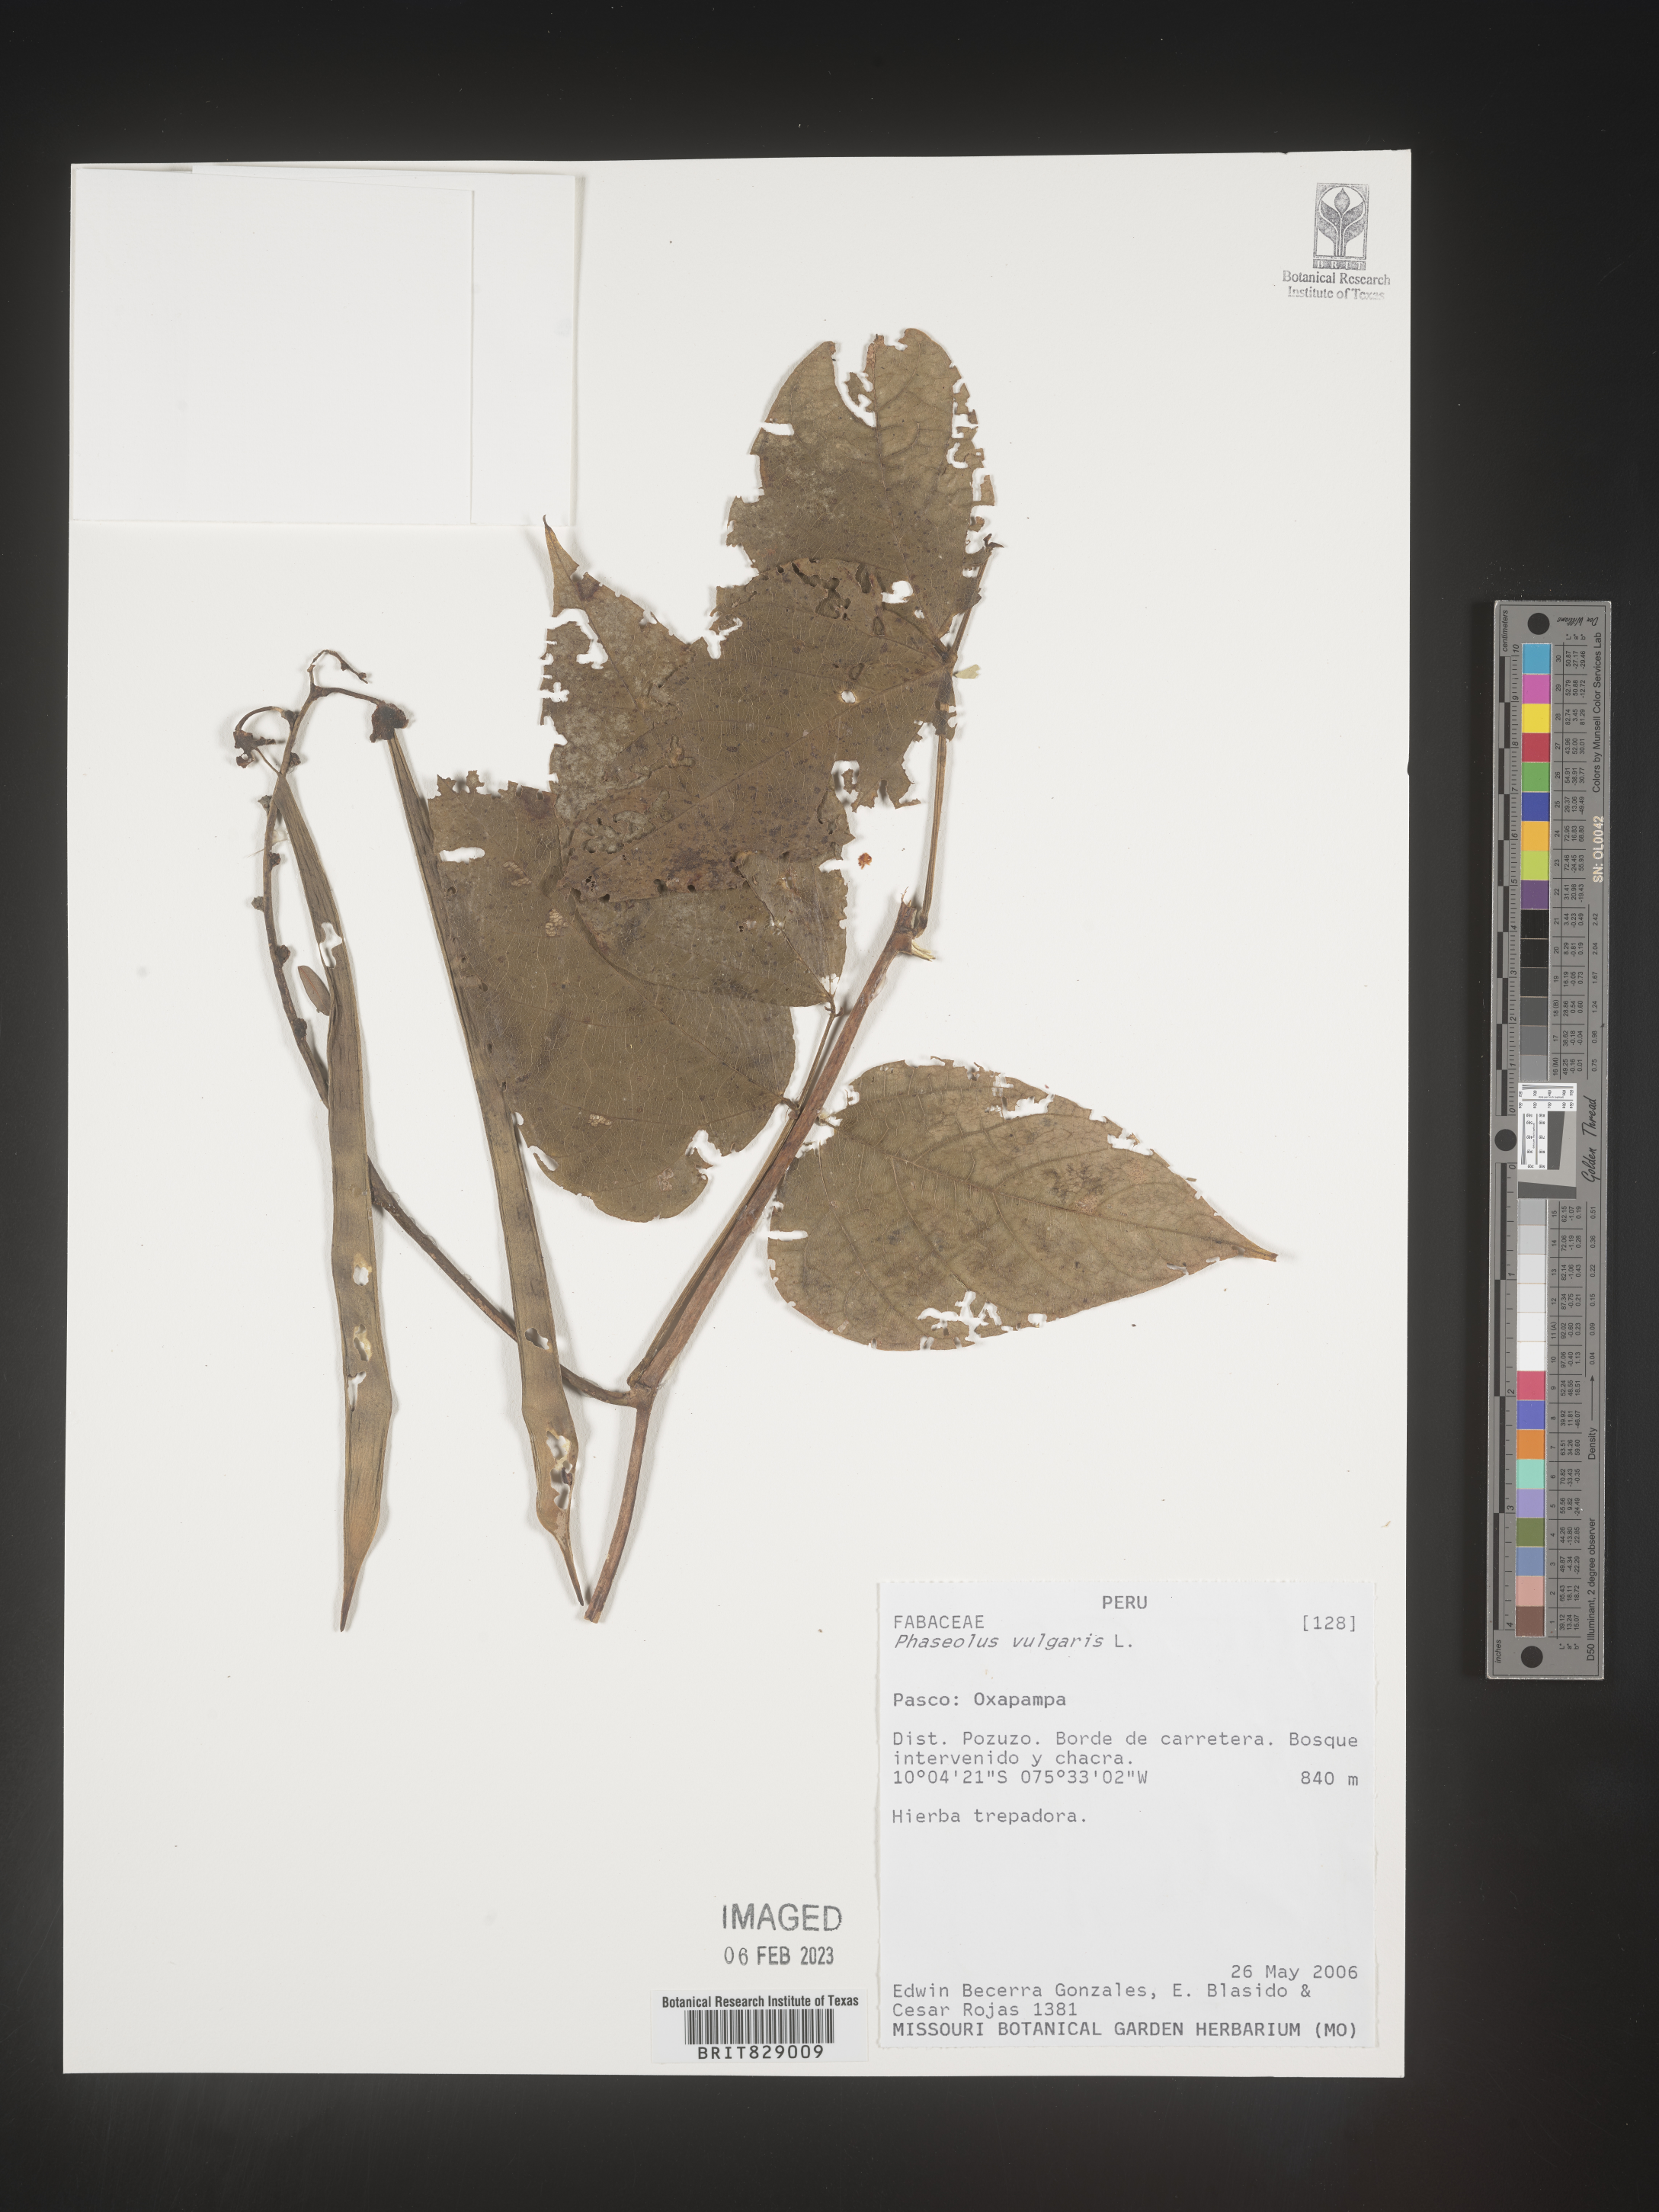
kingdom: Plantae
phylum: Tracheophyta
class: Magnoliopsida
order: Fabales
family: Fabaceae
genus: Phaseolus
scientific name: Phaseolus
